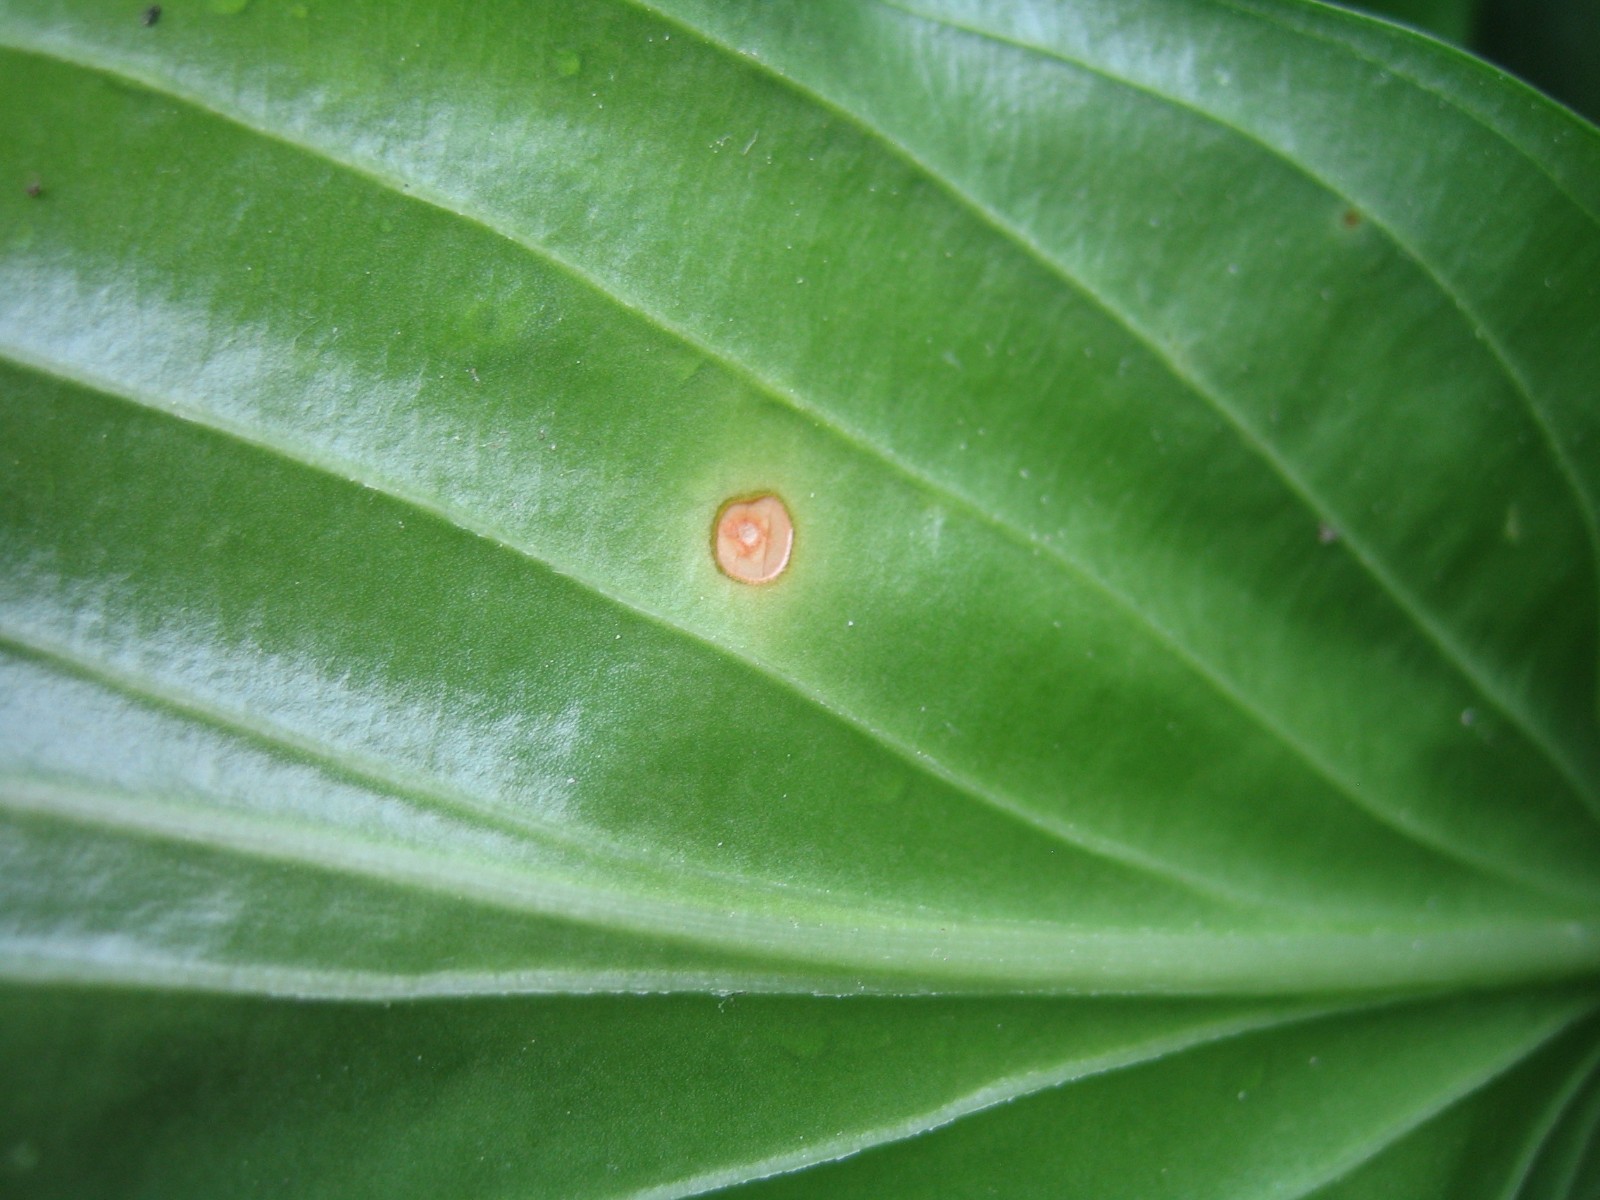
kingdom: Fungi
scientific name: Fungi
